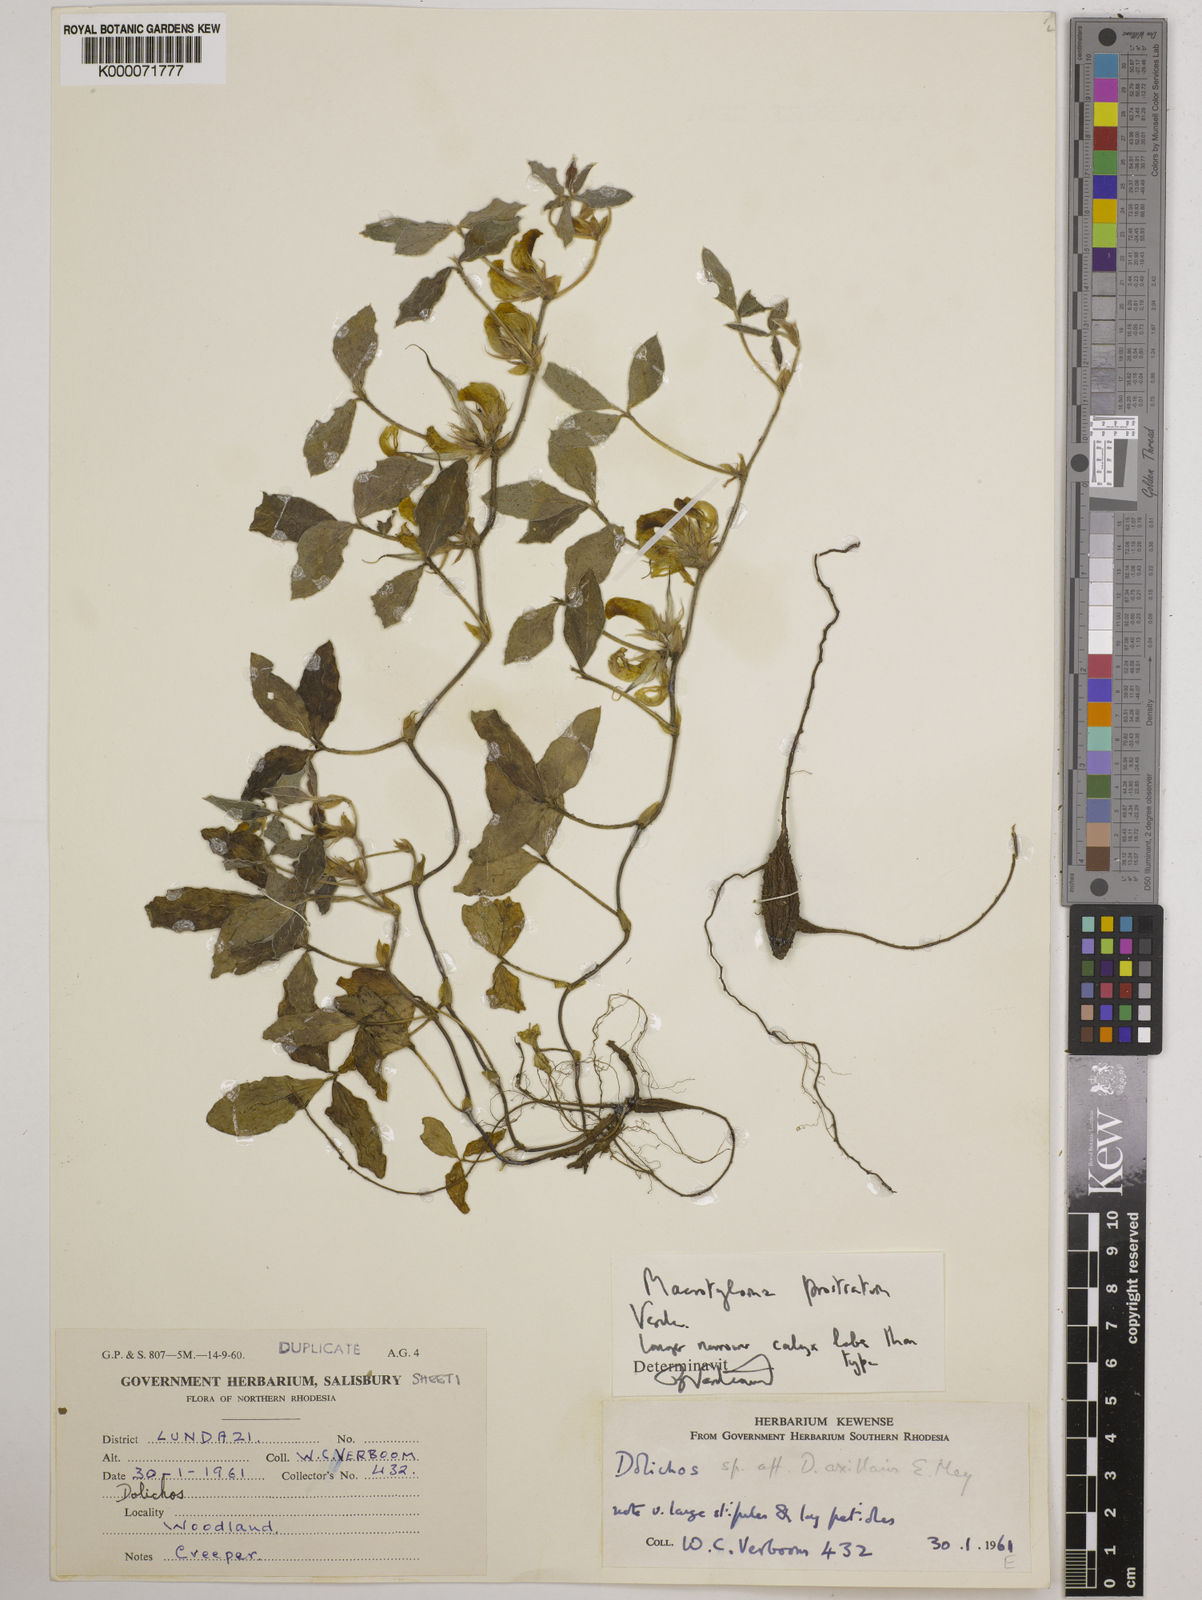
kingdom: Plantae
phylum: Tracheophyta
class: Magnoliopsida
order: Fabales
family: Fabaceae
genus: Macrotyloma
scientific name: Macrotyloma prostratum
